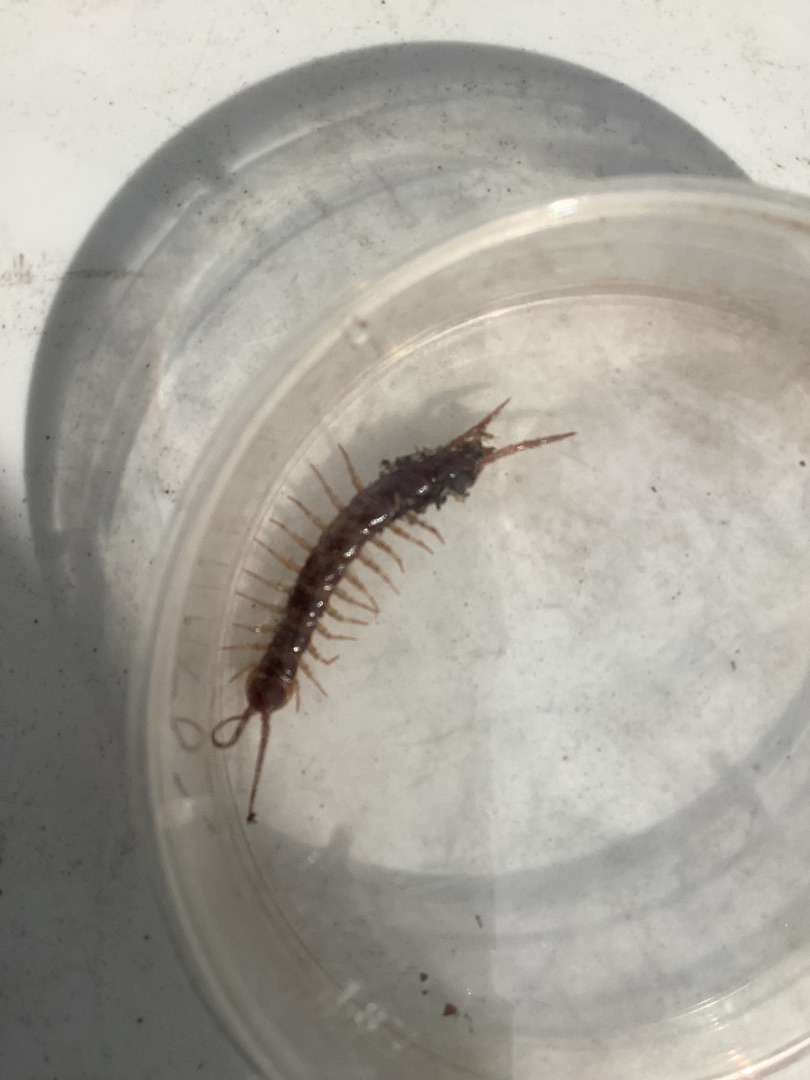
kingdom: Animalia
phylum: Arthropoda
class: Chilopoda
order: Lithobiomorpha
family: Lithobiidae
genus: Lithobius
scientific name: Lithobius forficatus
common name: Stenskolopender
